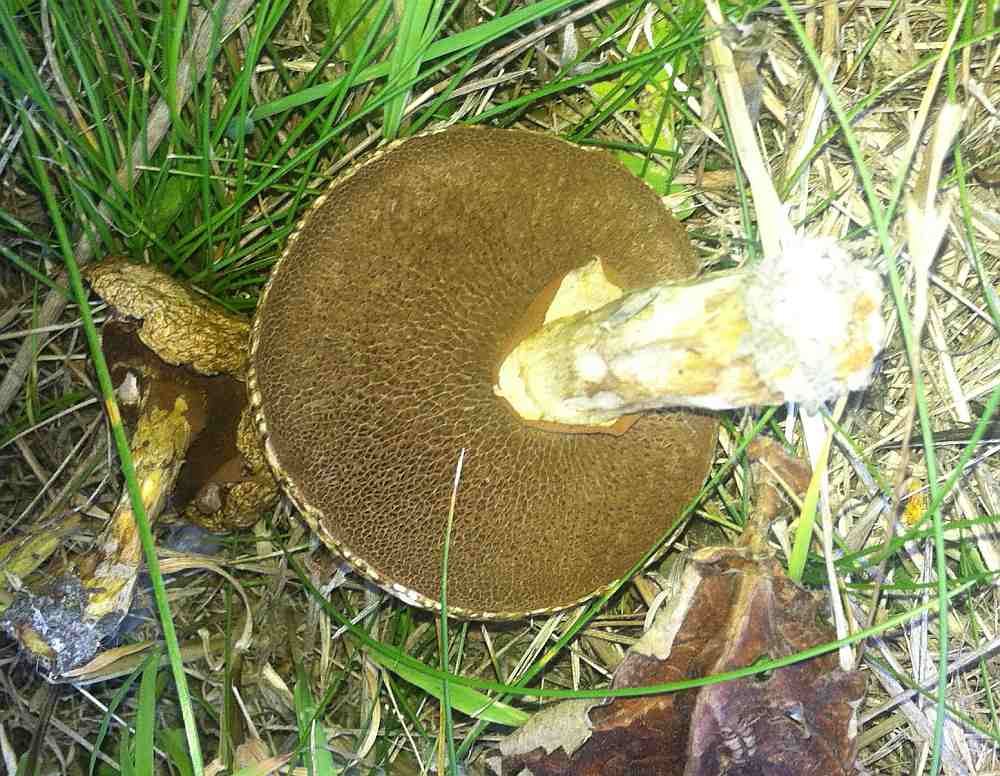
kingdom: Fungi
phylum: Basidiomycota
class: Agaricomycetes
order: Boletales
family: Suillaceae
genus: Suillus
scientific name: Suillus viscidus
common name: olivengrå slimrørhat
